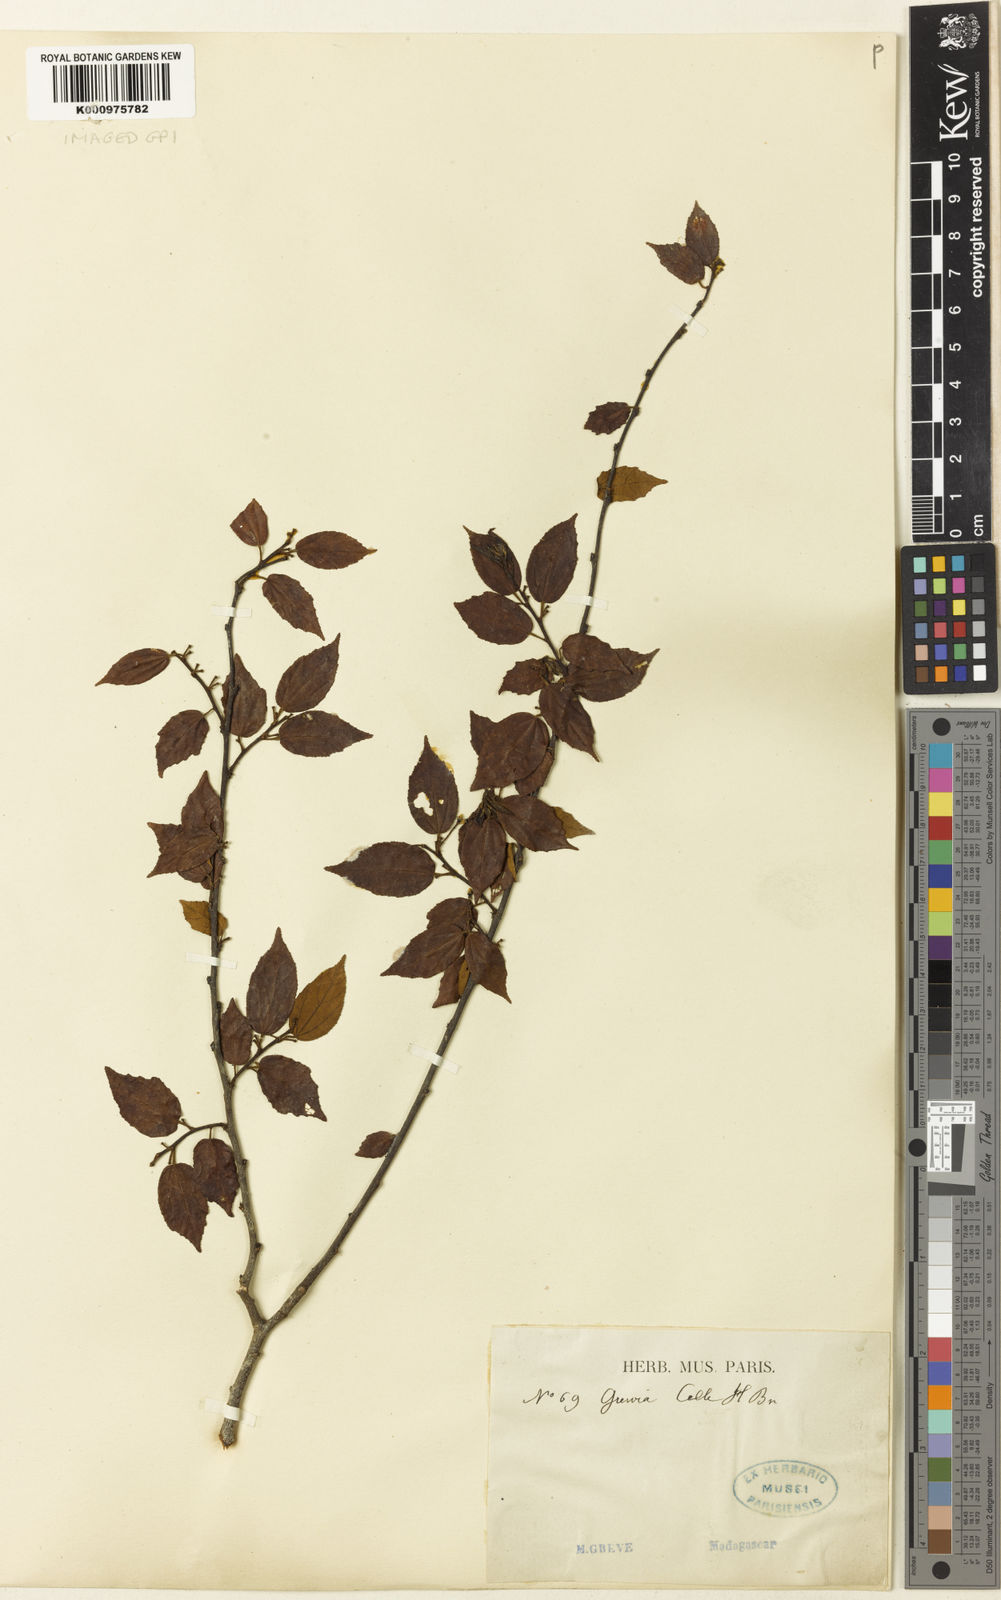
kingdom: Plantae
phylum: Tracheophyta
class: Magnoliopsida
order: Malvales
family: Malvaceae
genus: Grewia
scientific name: Grewia grandidieri
